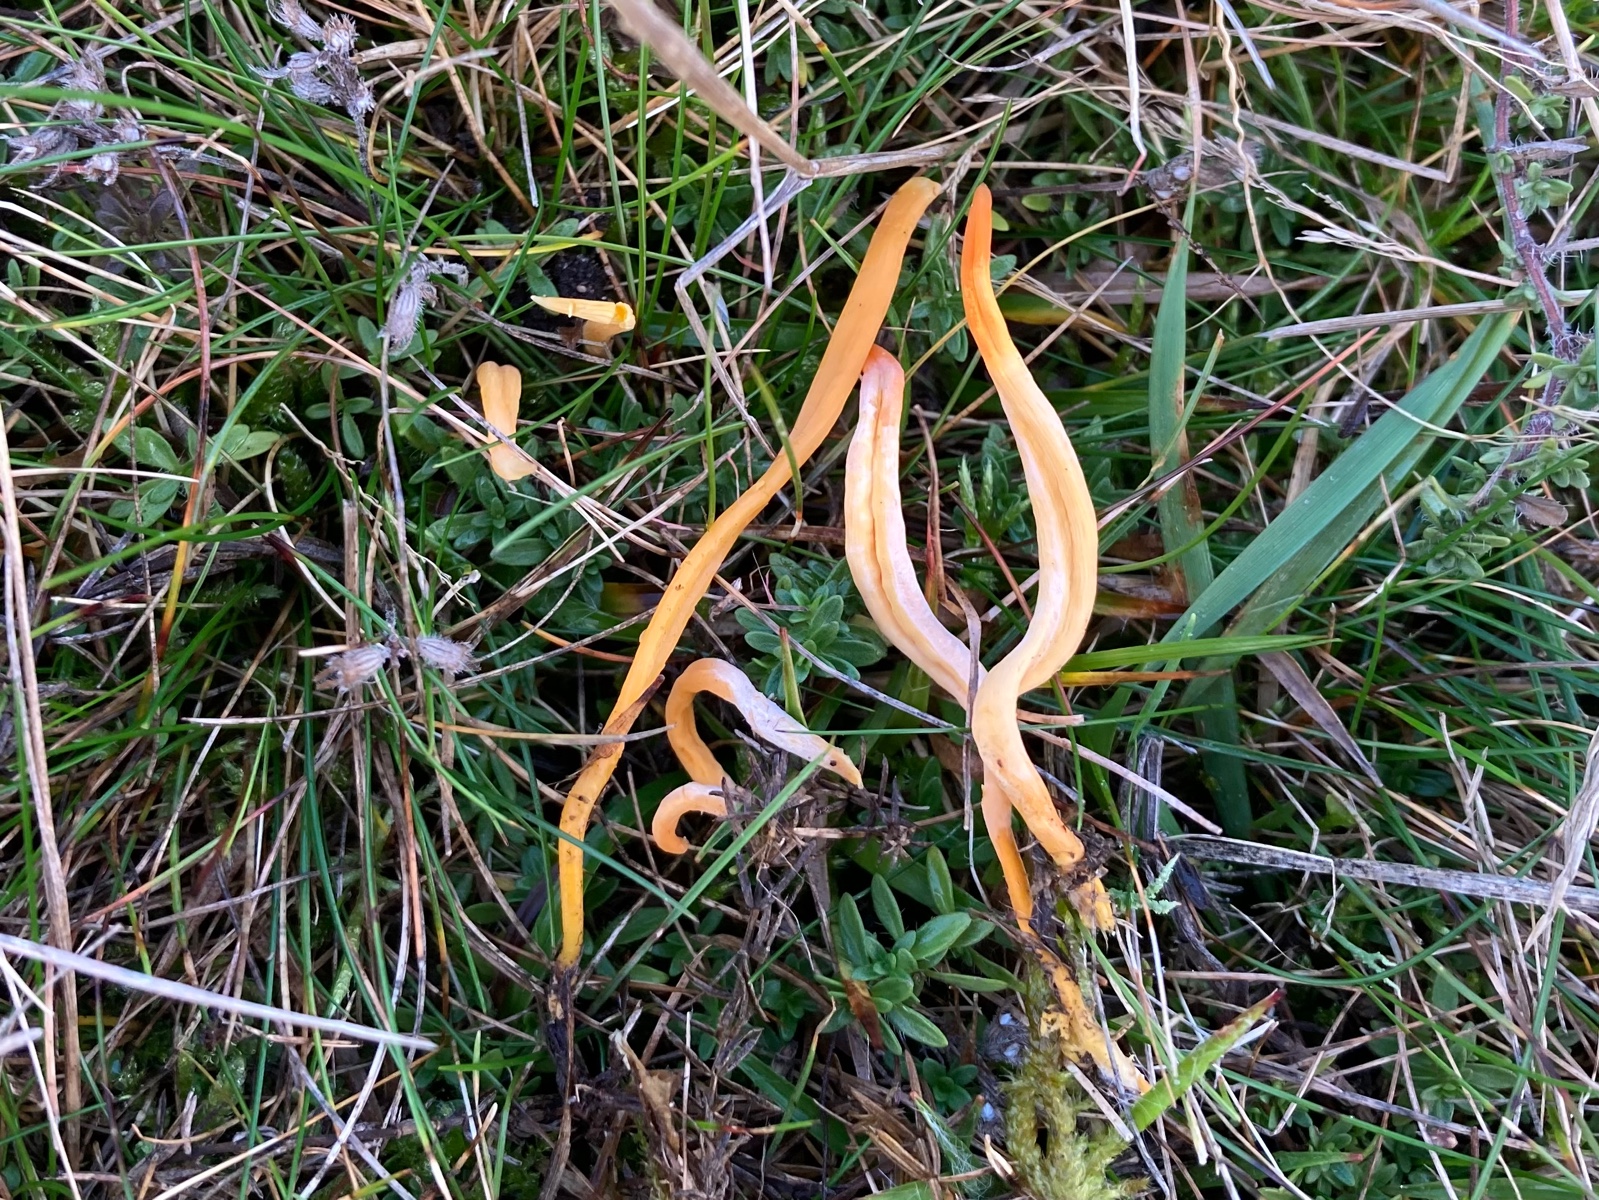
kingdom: Fungi
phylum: Basidiomycota
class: Agaricomycetes
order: Agaricales
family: Clavariaceae
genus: Clavulinopsis
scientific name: Clavulinopsis
